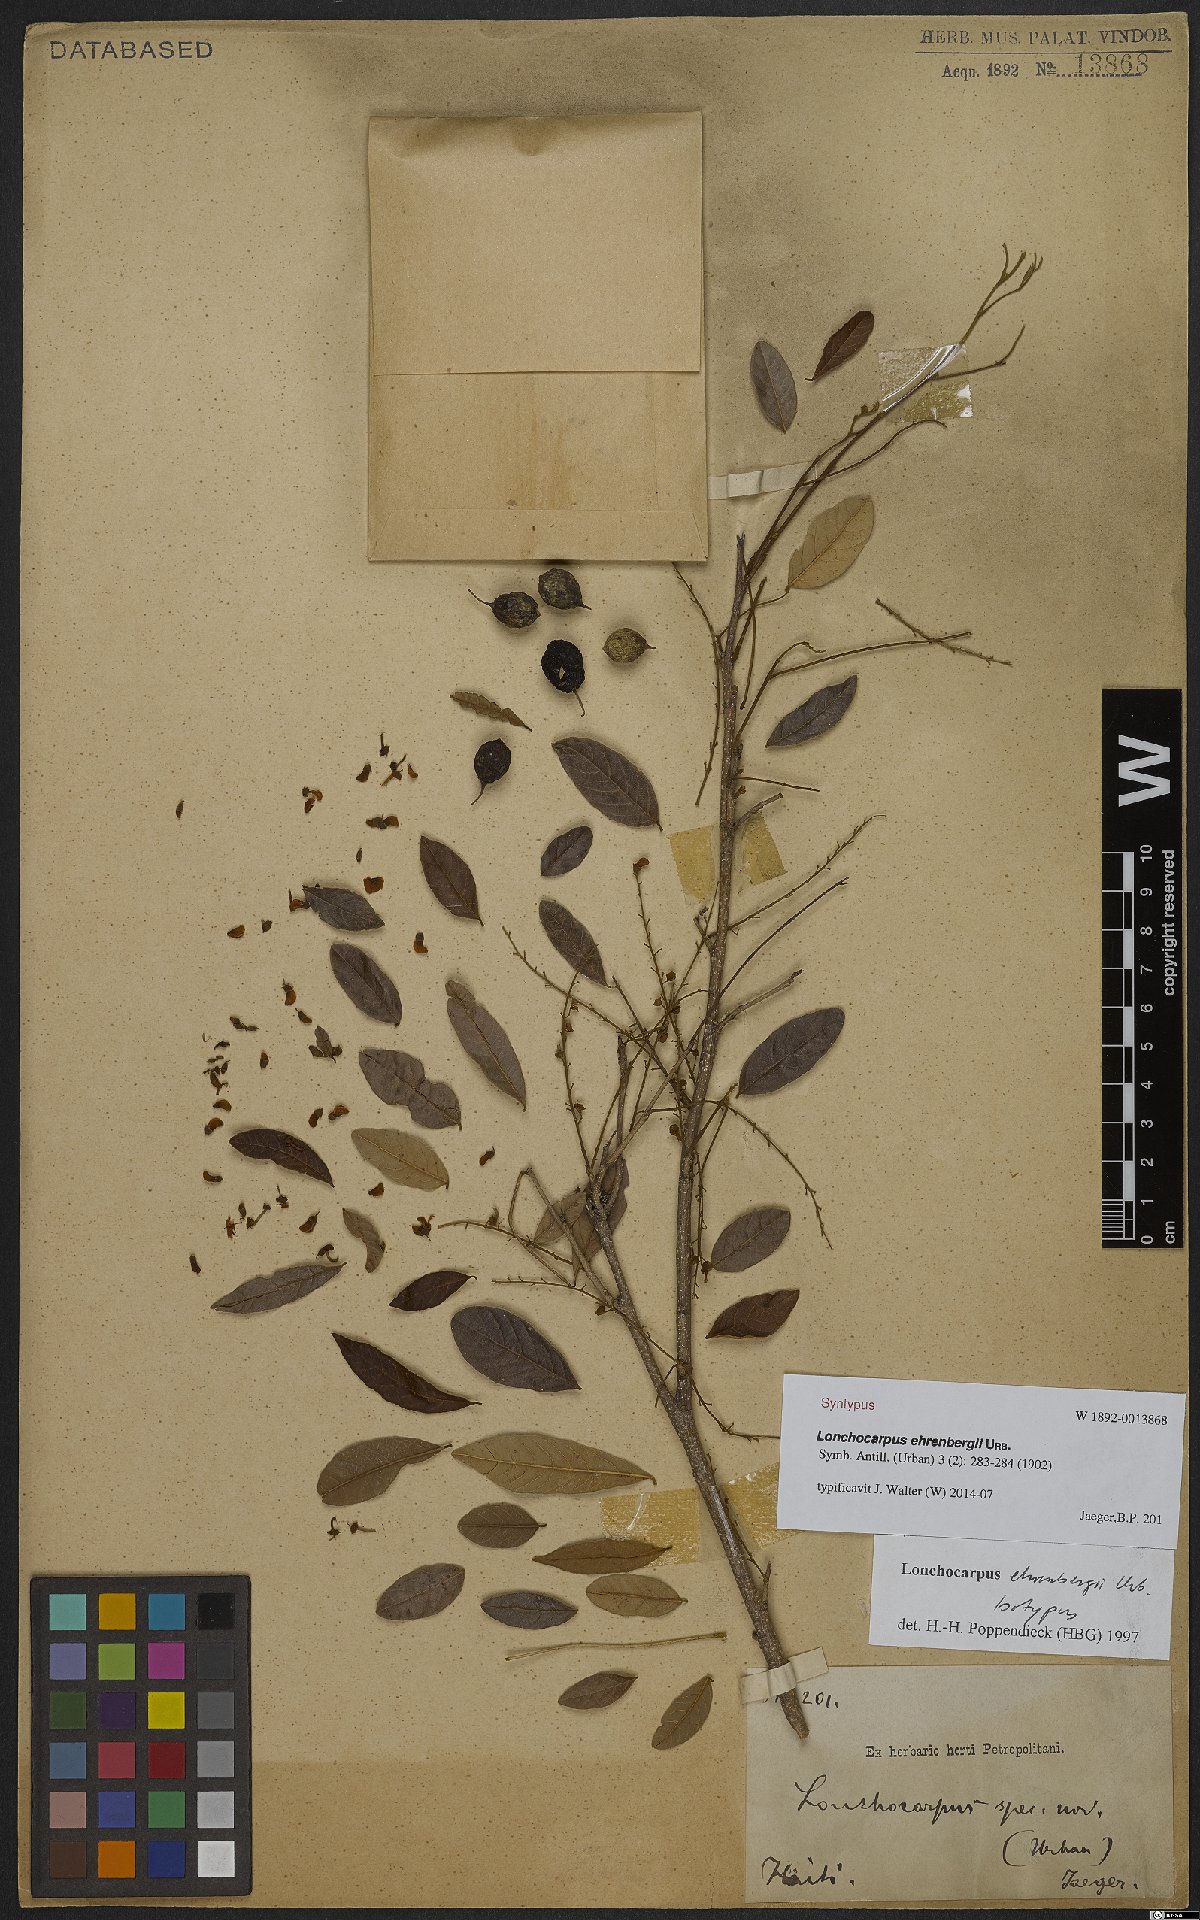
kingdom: Plantae
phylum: Tracheophyta
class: Magnoliopsida
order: Fabales
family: Fabaceae
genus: Lonchocarpus
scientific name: Lonchocarpus neurophyllus
